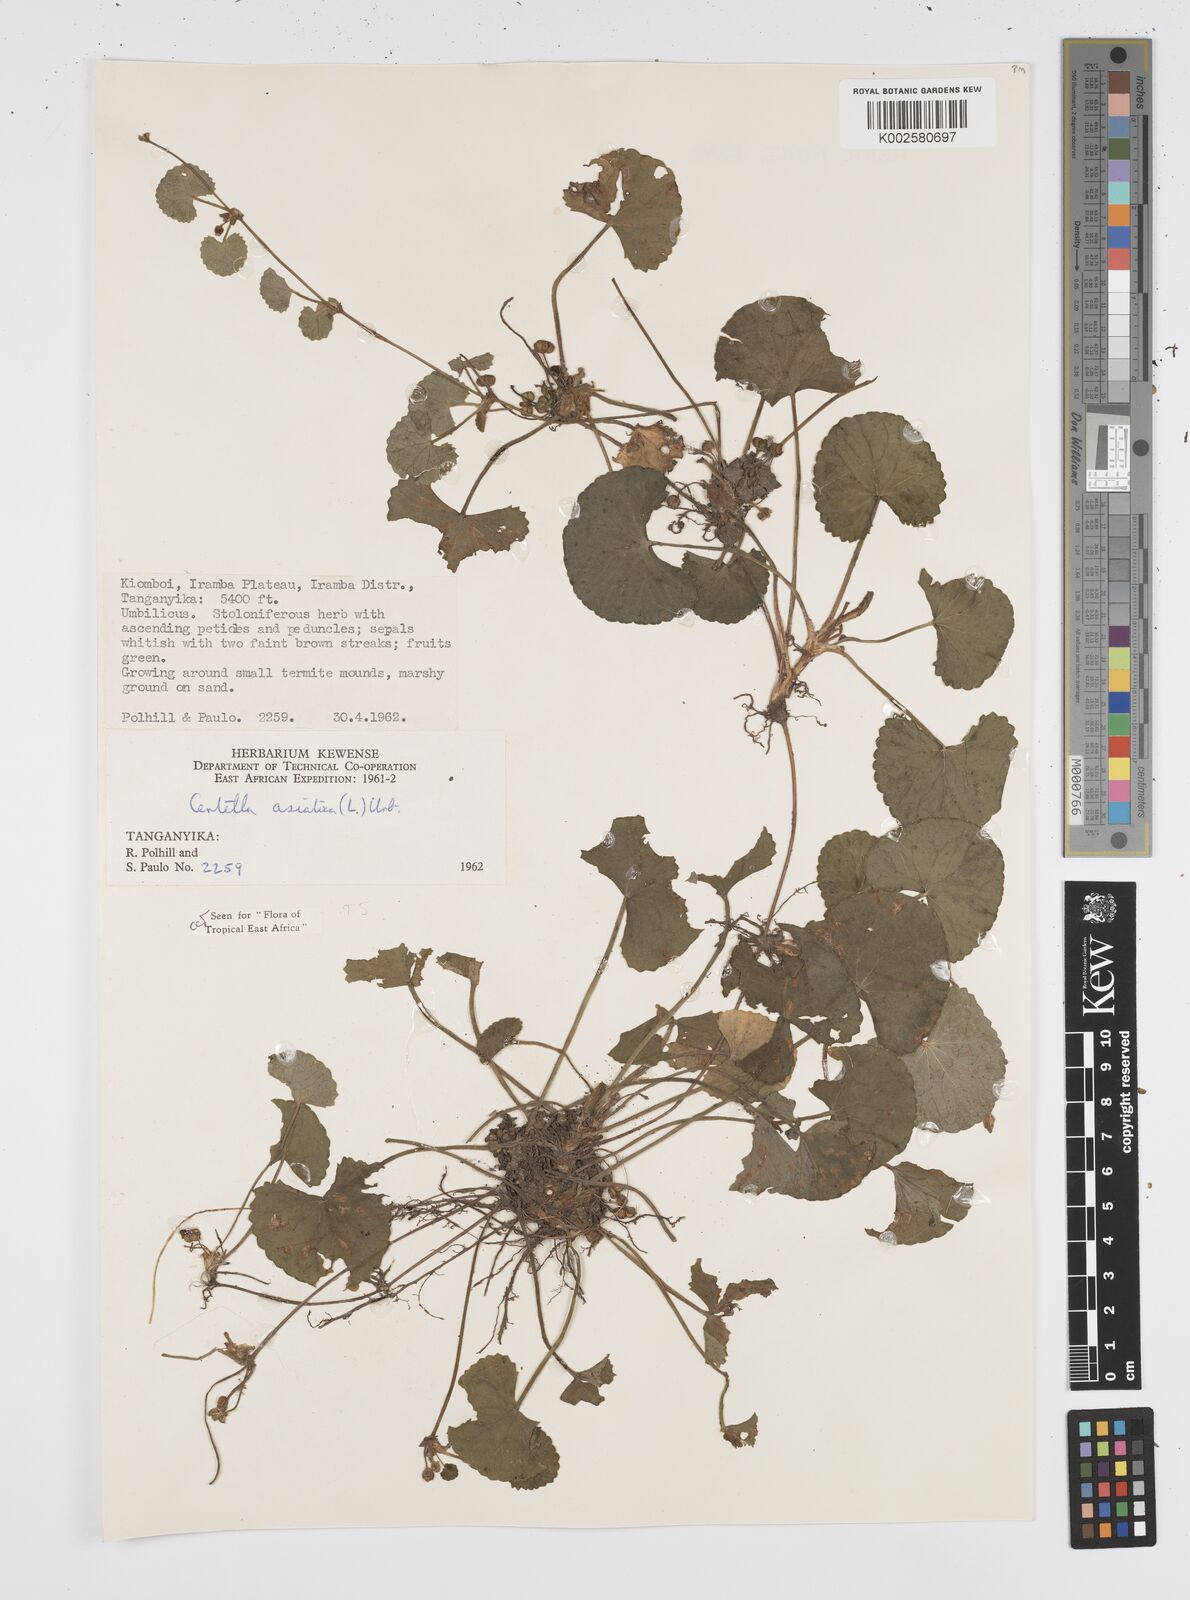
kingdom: Plantae
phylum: Tracheophyta
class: Magnoliopsida
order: Apiales
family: Apiaceae
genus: Centella
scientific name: Centella asiatica
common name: Spadeleaf
